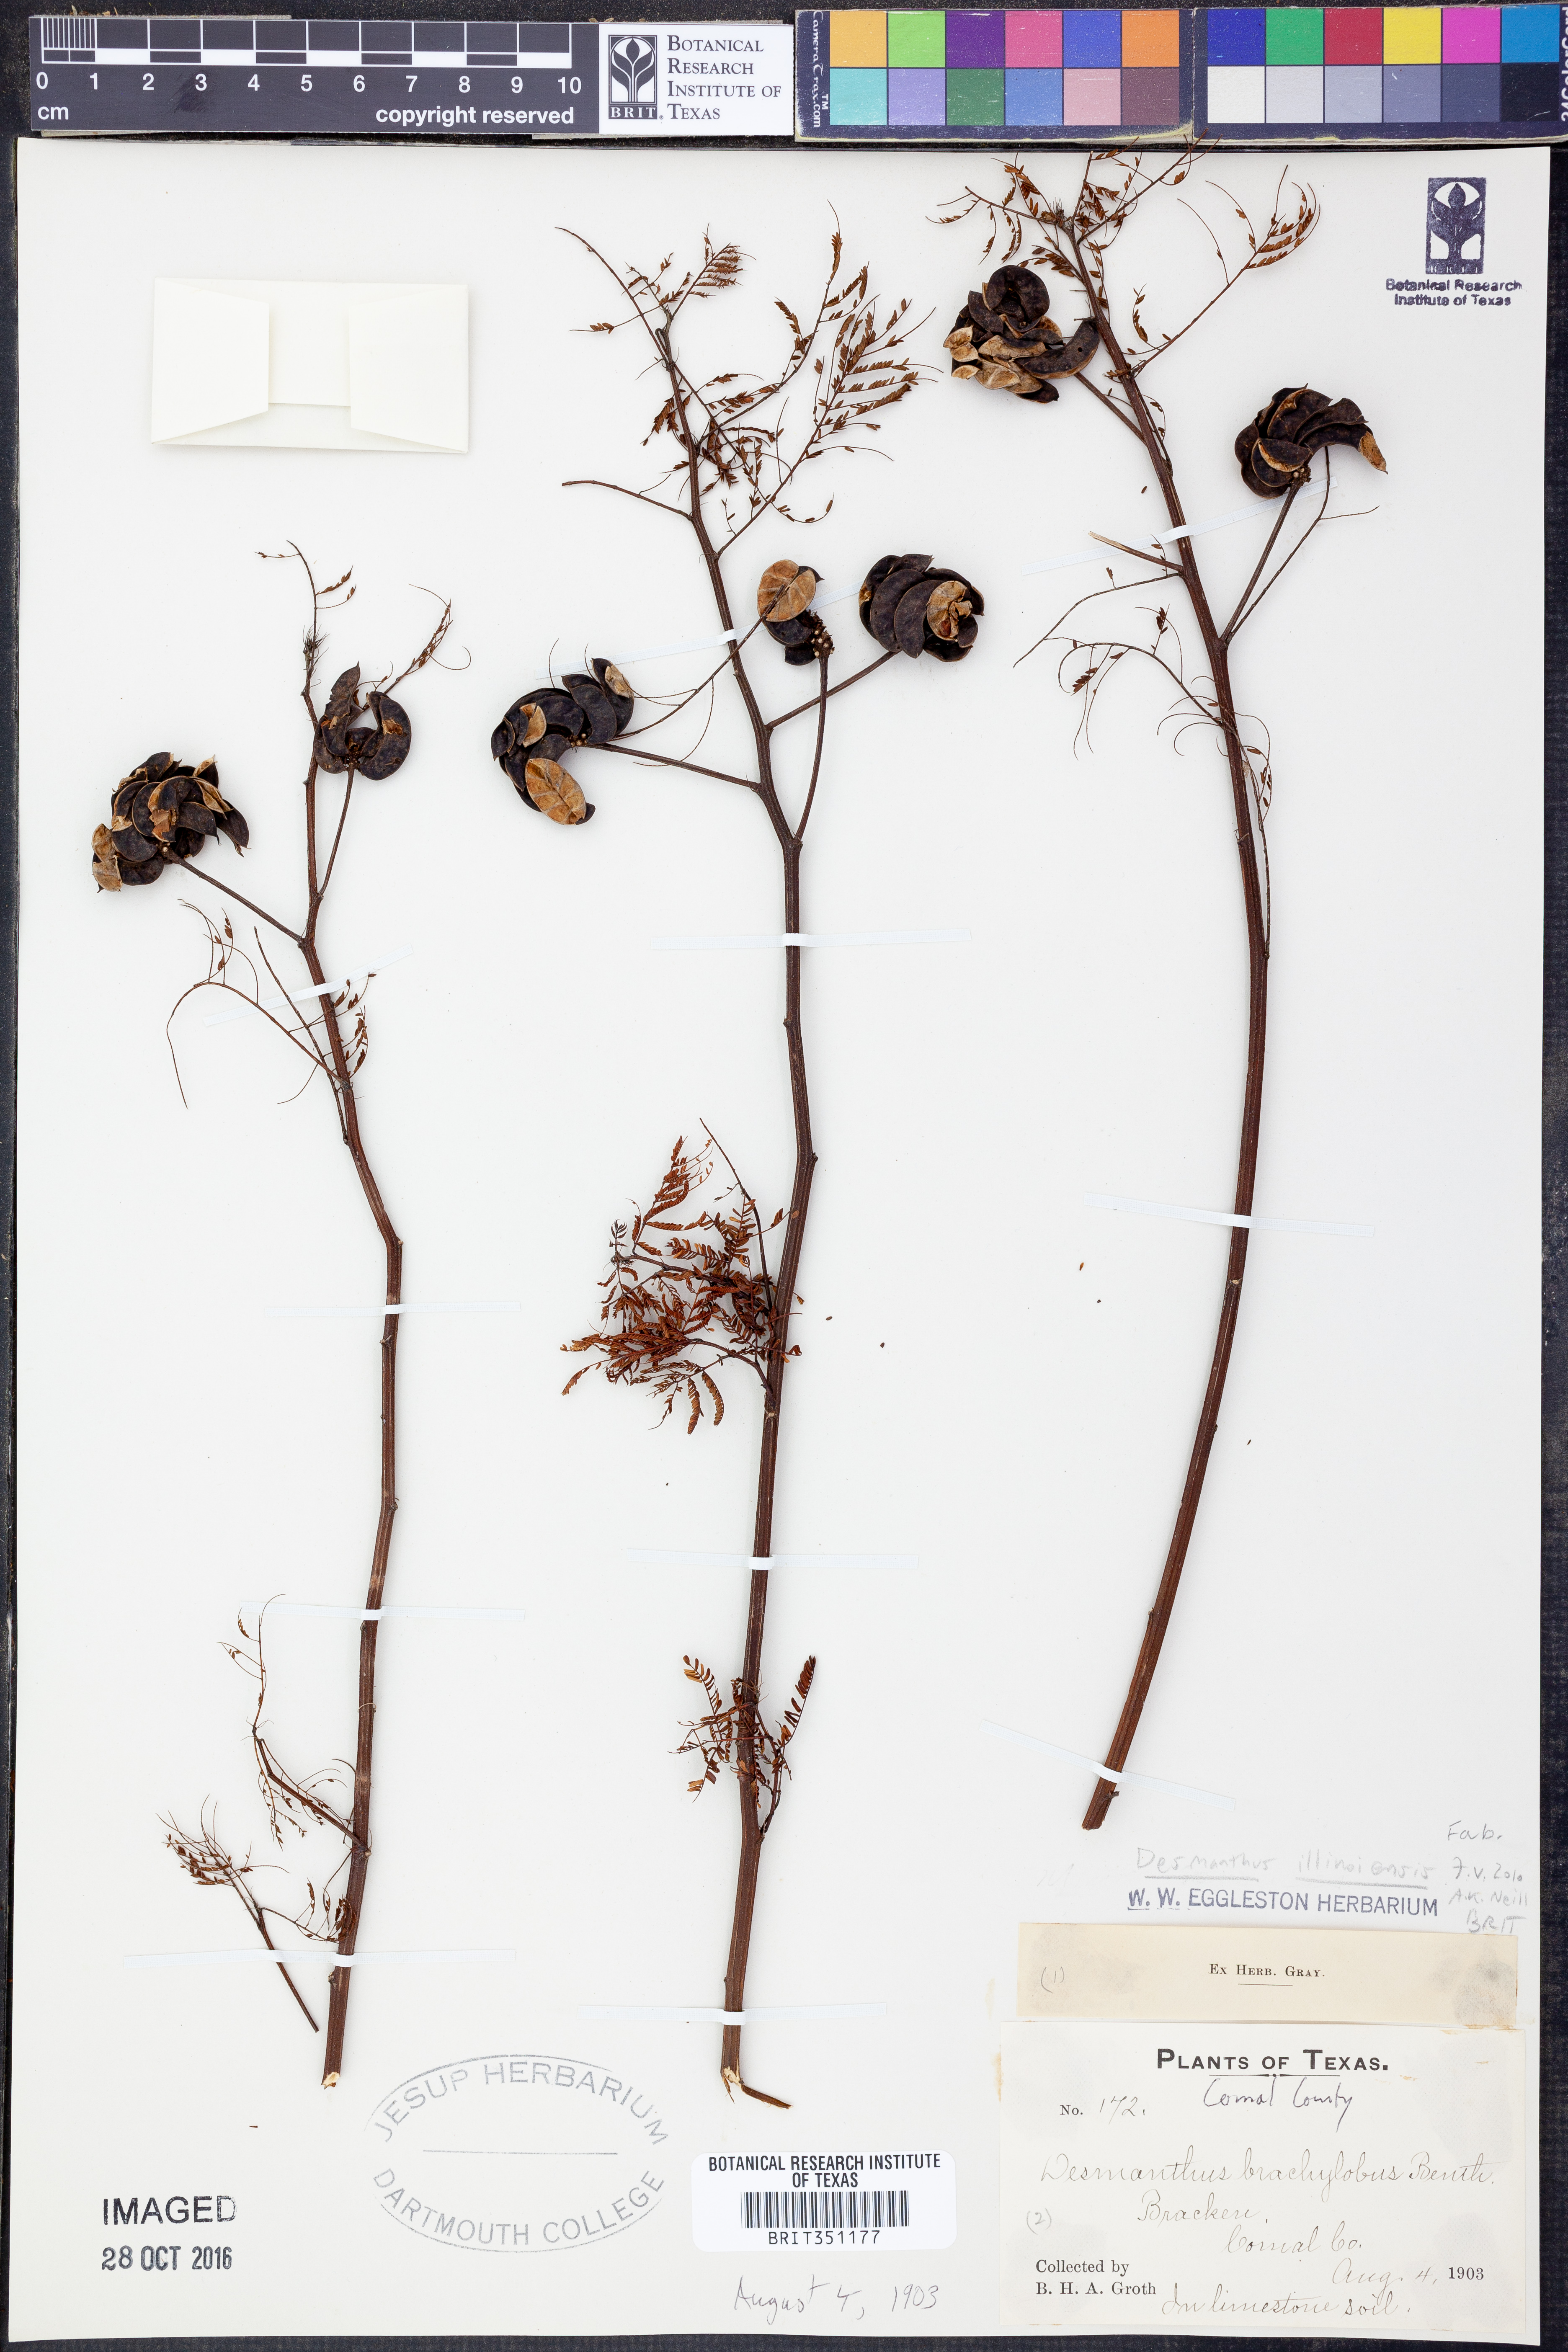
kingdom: Plantae
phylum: Tracheophyta
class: Magnoliopsida
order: Fabales
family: Fabaceae
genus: Desmanthus
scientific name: Desmanthus illinoensis
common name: Illinois bundle-flower
